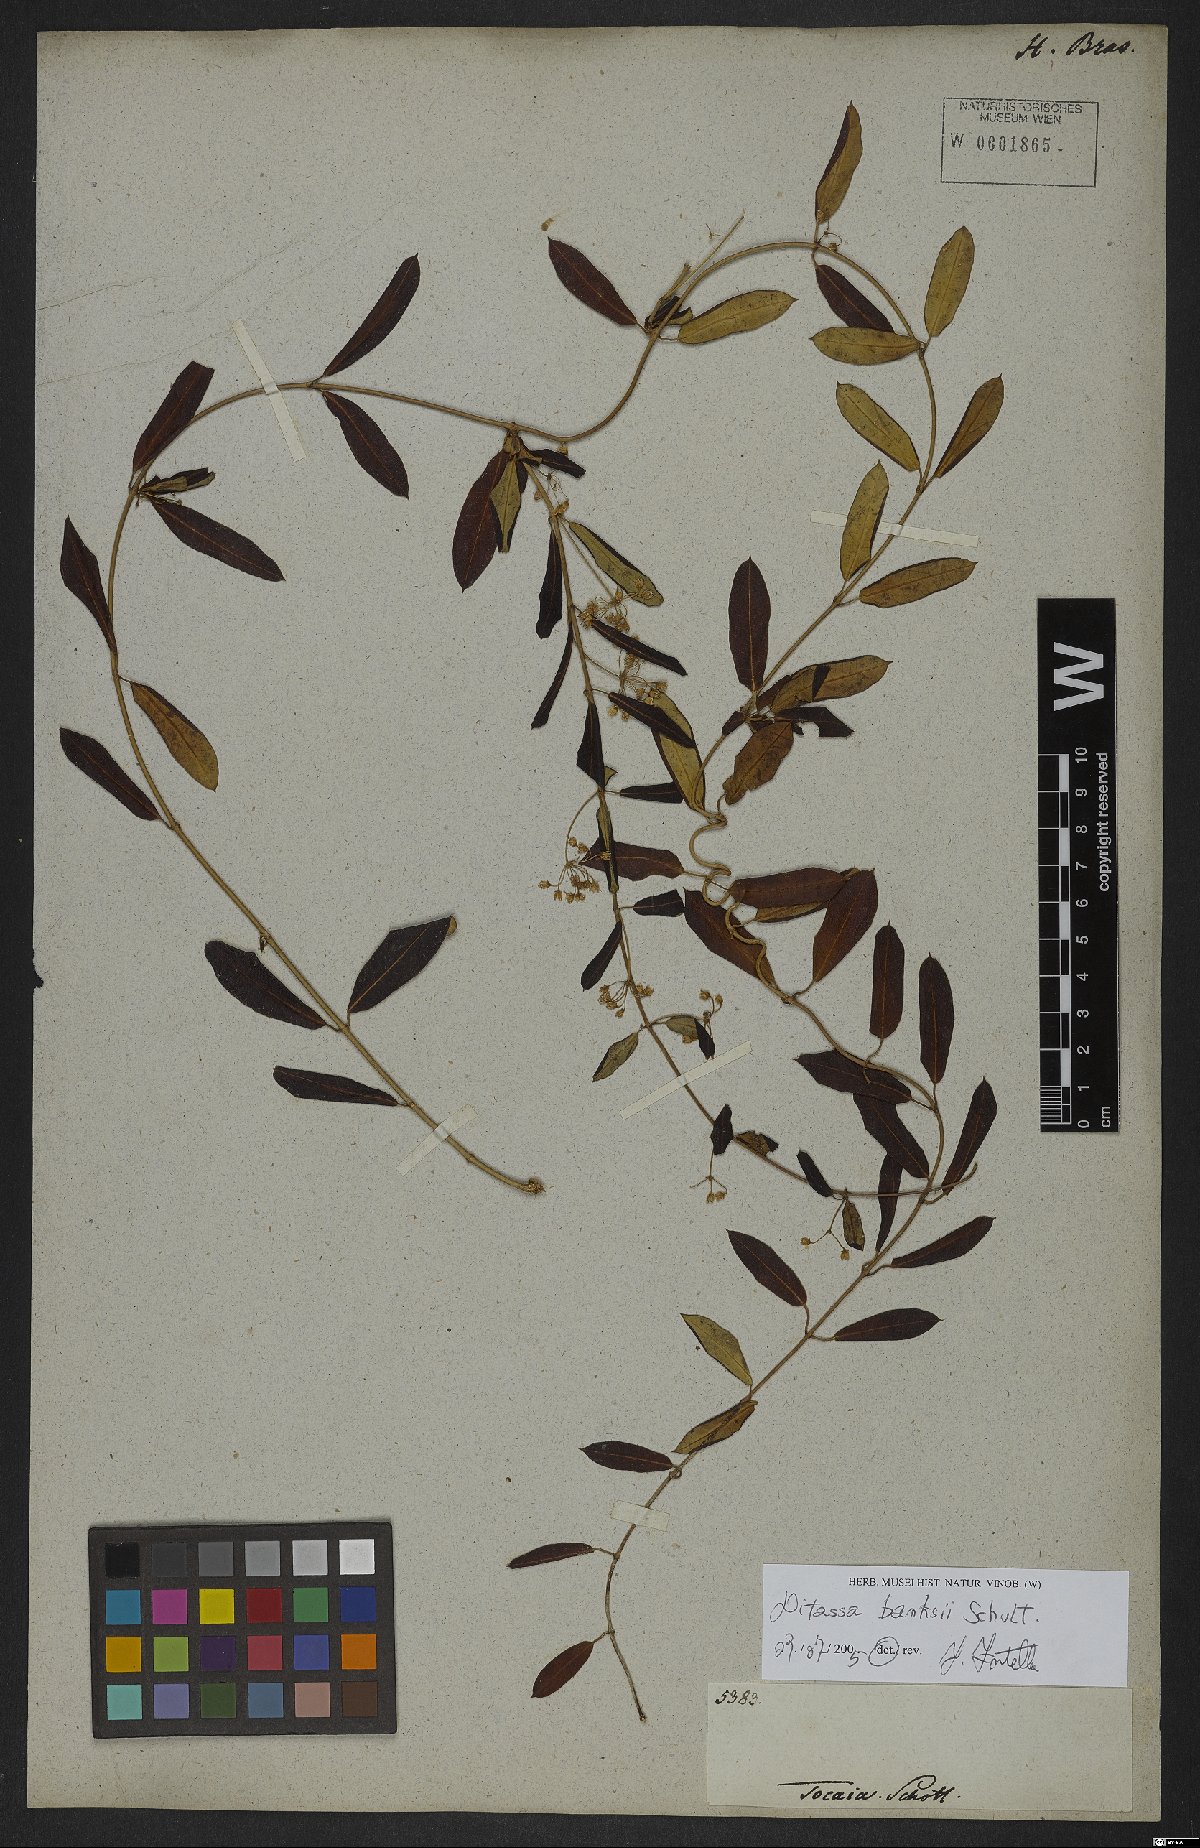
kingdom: Plantae
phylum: Tracheophyta
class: Magnoliopsida
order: Gentianales
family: Apocynaceae
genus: Ditassa
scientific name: Ditassa banksii
